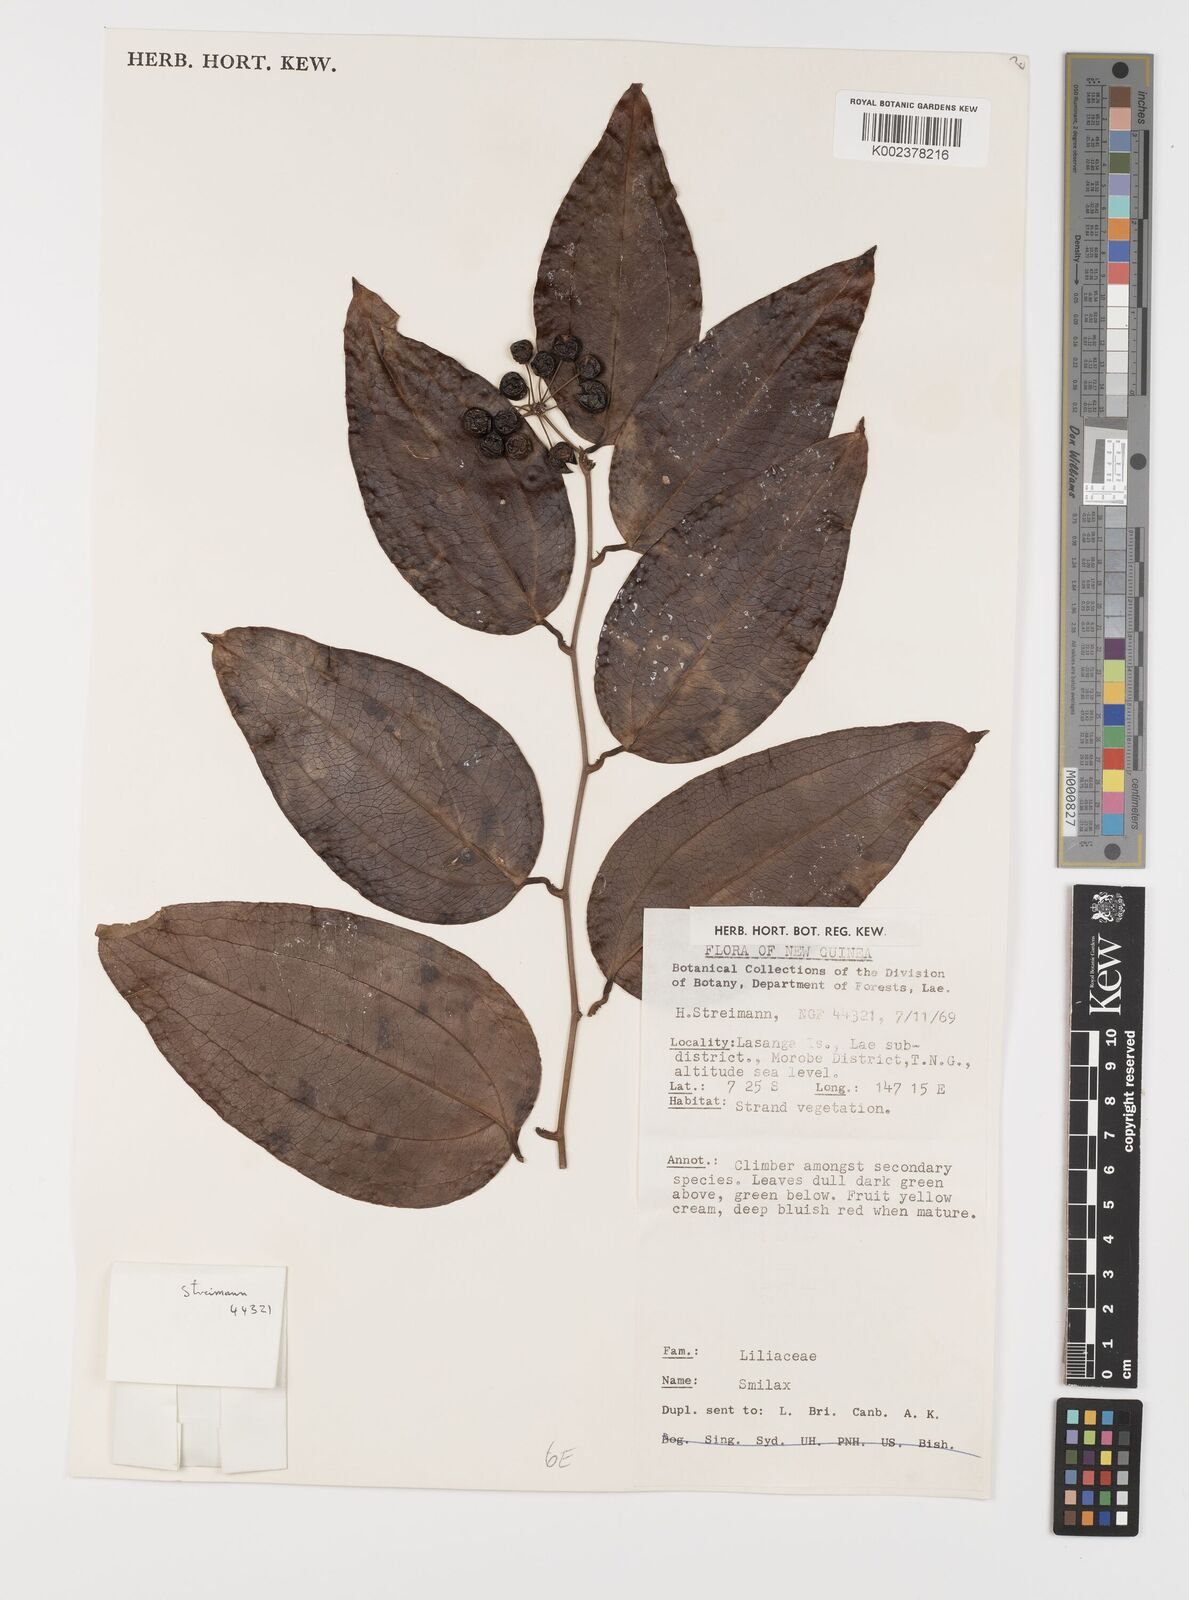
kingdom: Plantae
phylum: Tracheophyta
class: Liliopsida
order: Liliales
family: Smilacaceae
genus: Smilax
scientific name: Smilax
